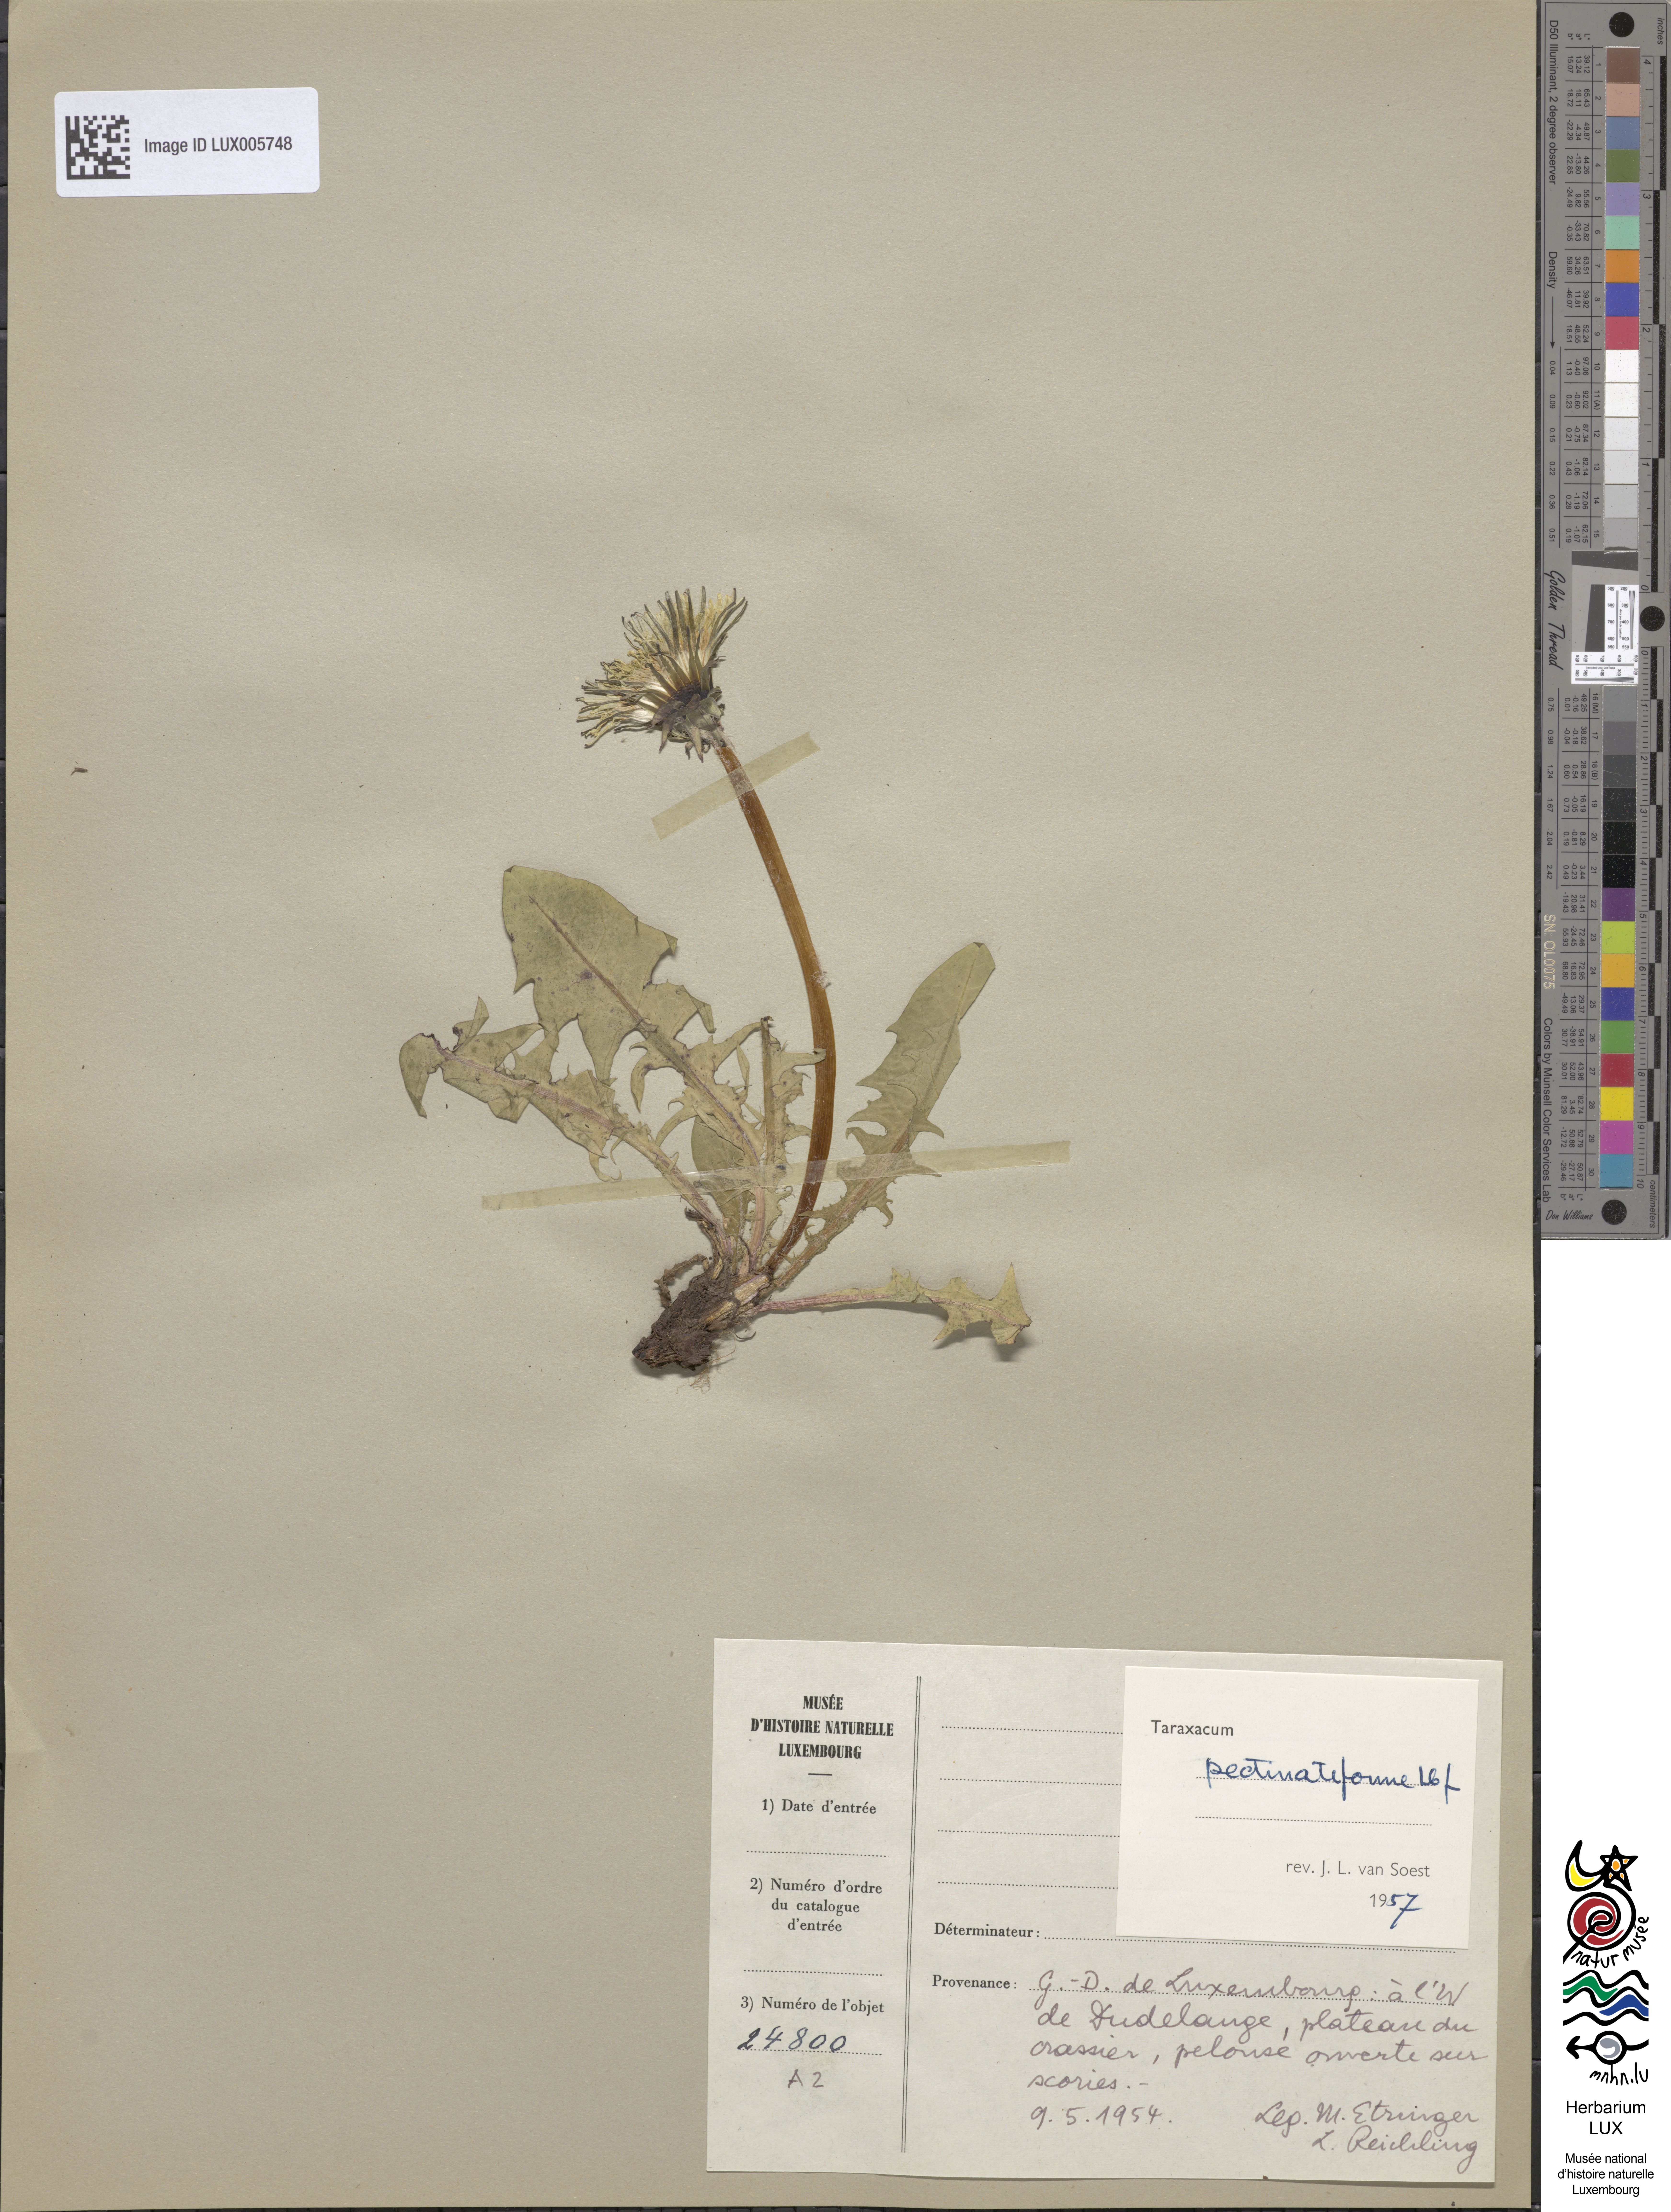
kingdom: Plantae
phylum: Tracheophyta
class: Magnoliopsida
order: Asterales
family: Asteraceae
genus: Taraxacum
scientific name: Taraxacum pectinatiforme
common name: Pectinate-leaved dandelion
